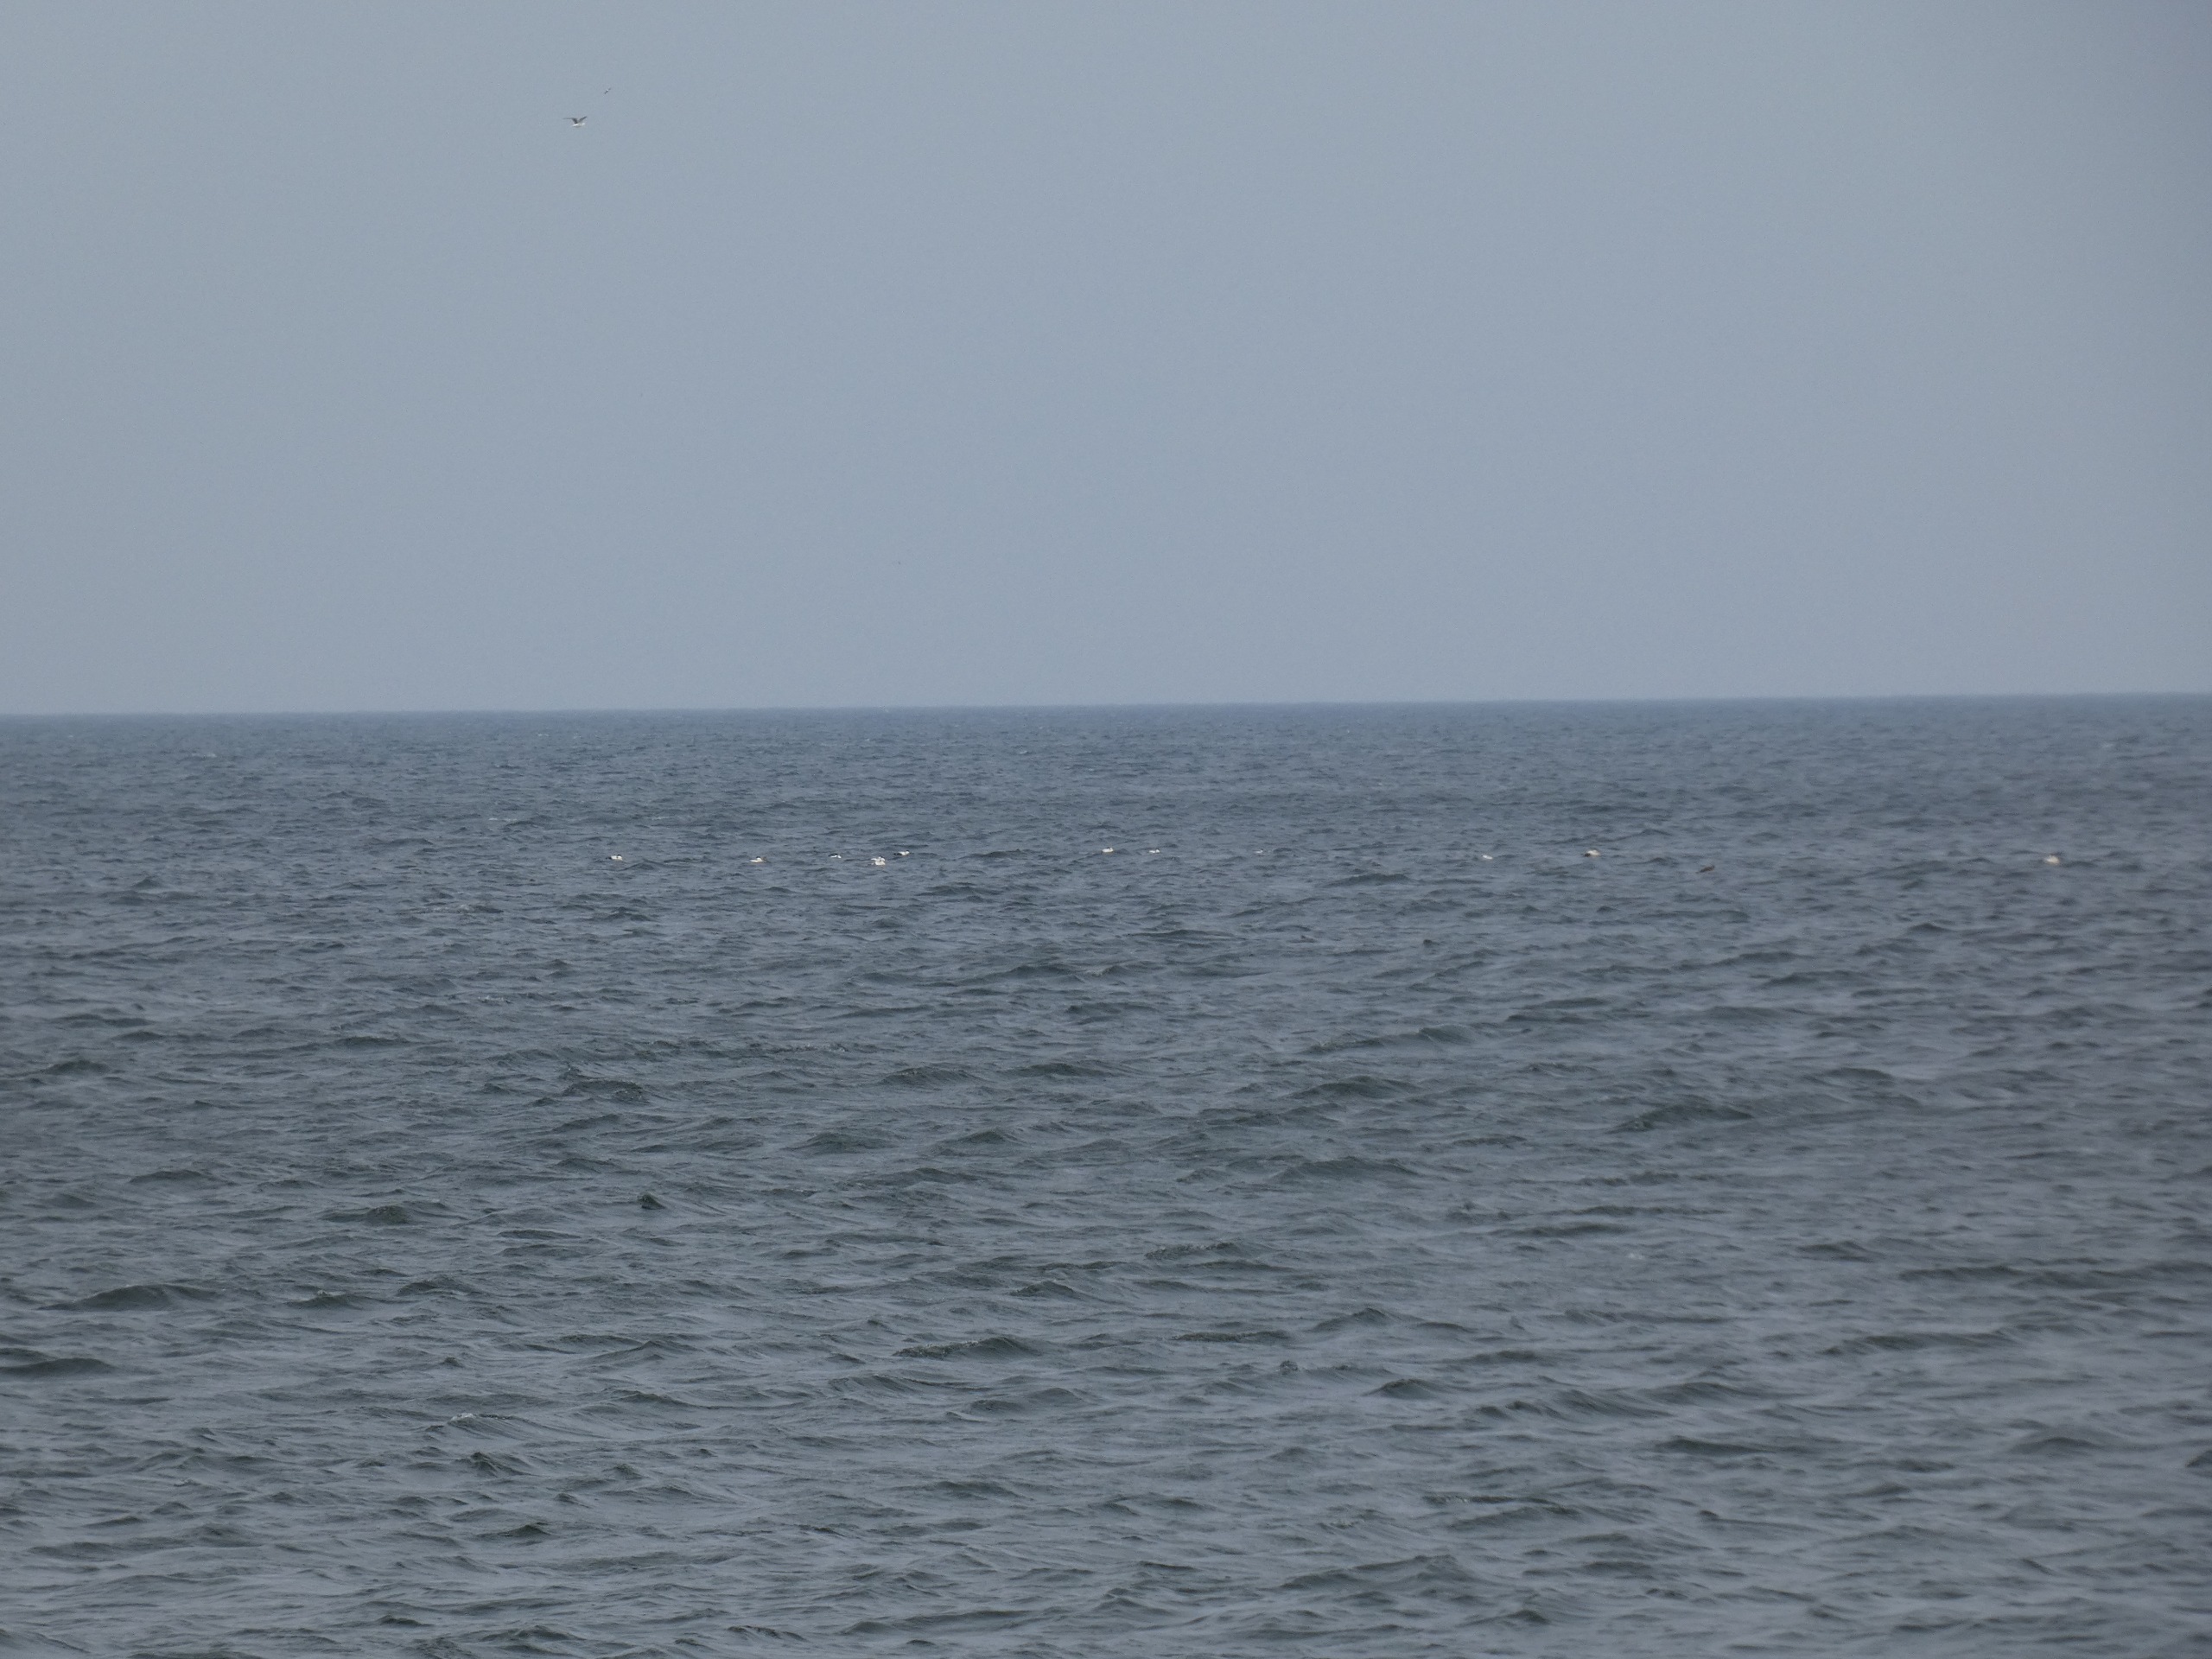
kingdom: Animalia
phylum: Chordata
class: Aves
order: Anseriformes
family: Anatidae
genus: Somateria
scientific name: Somateria mollissima
